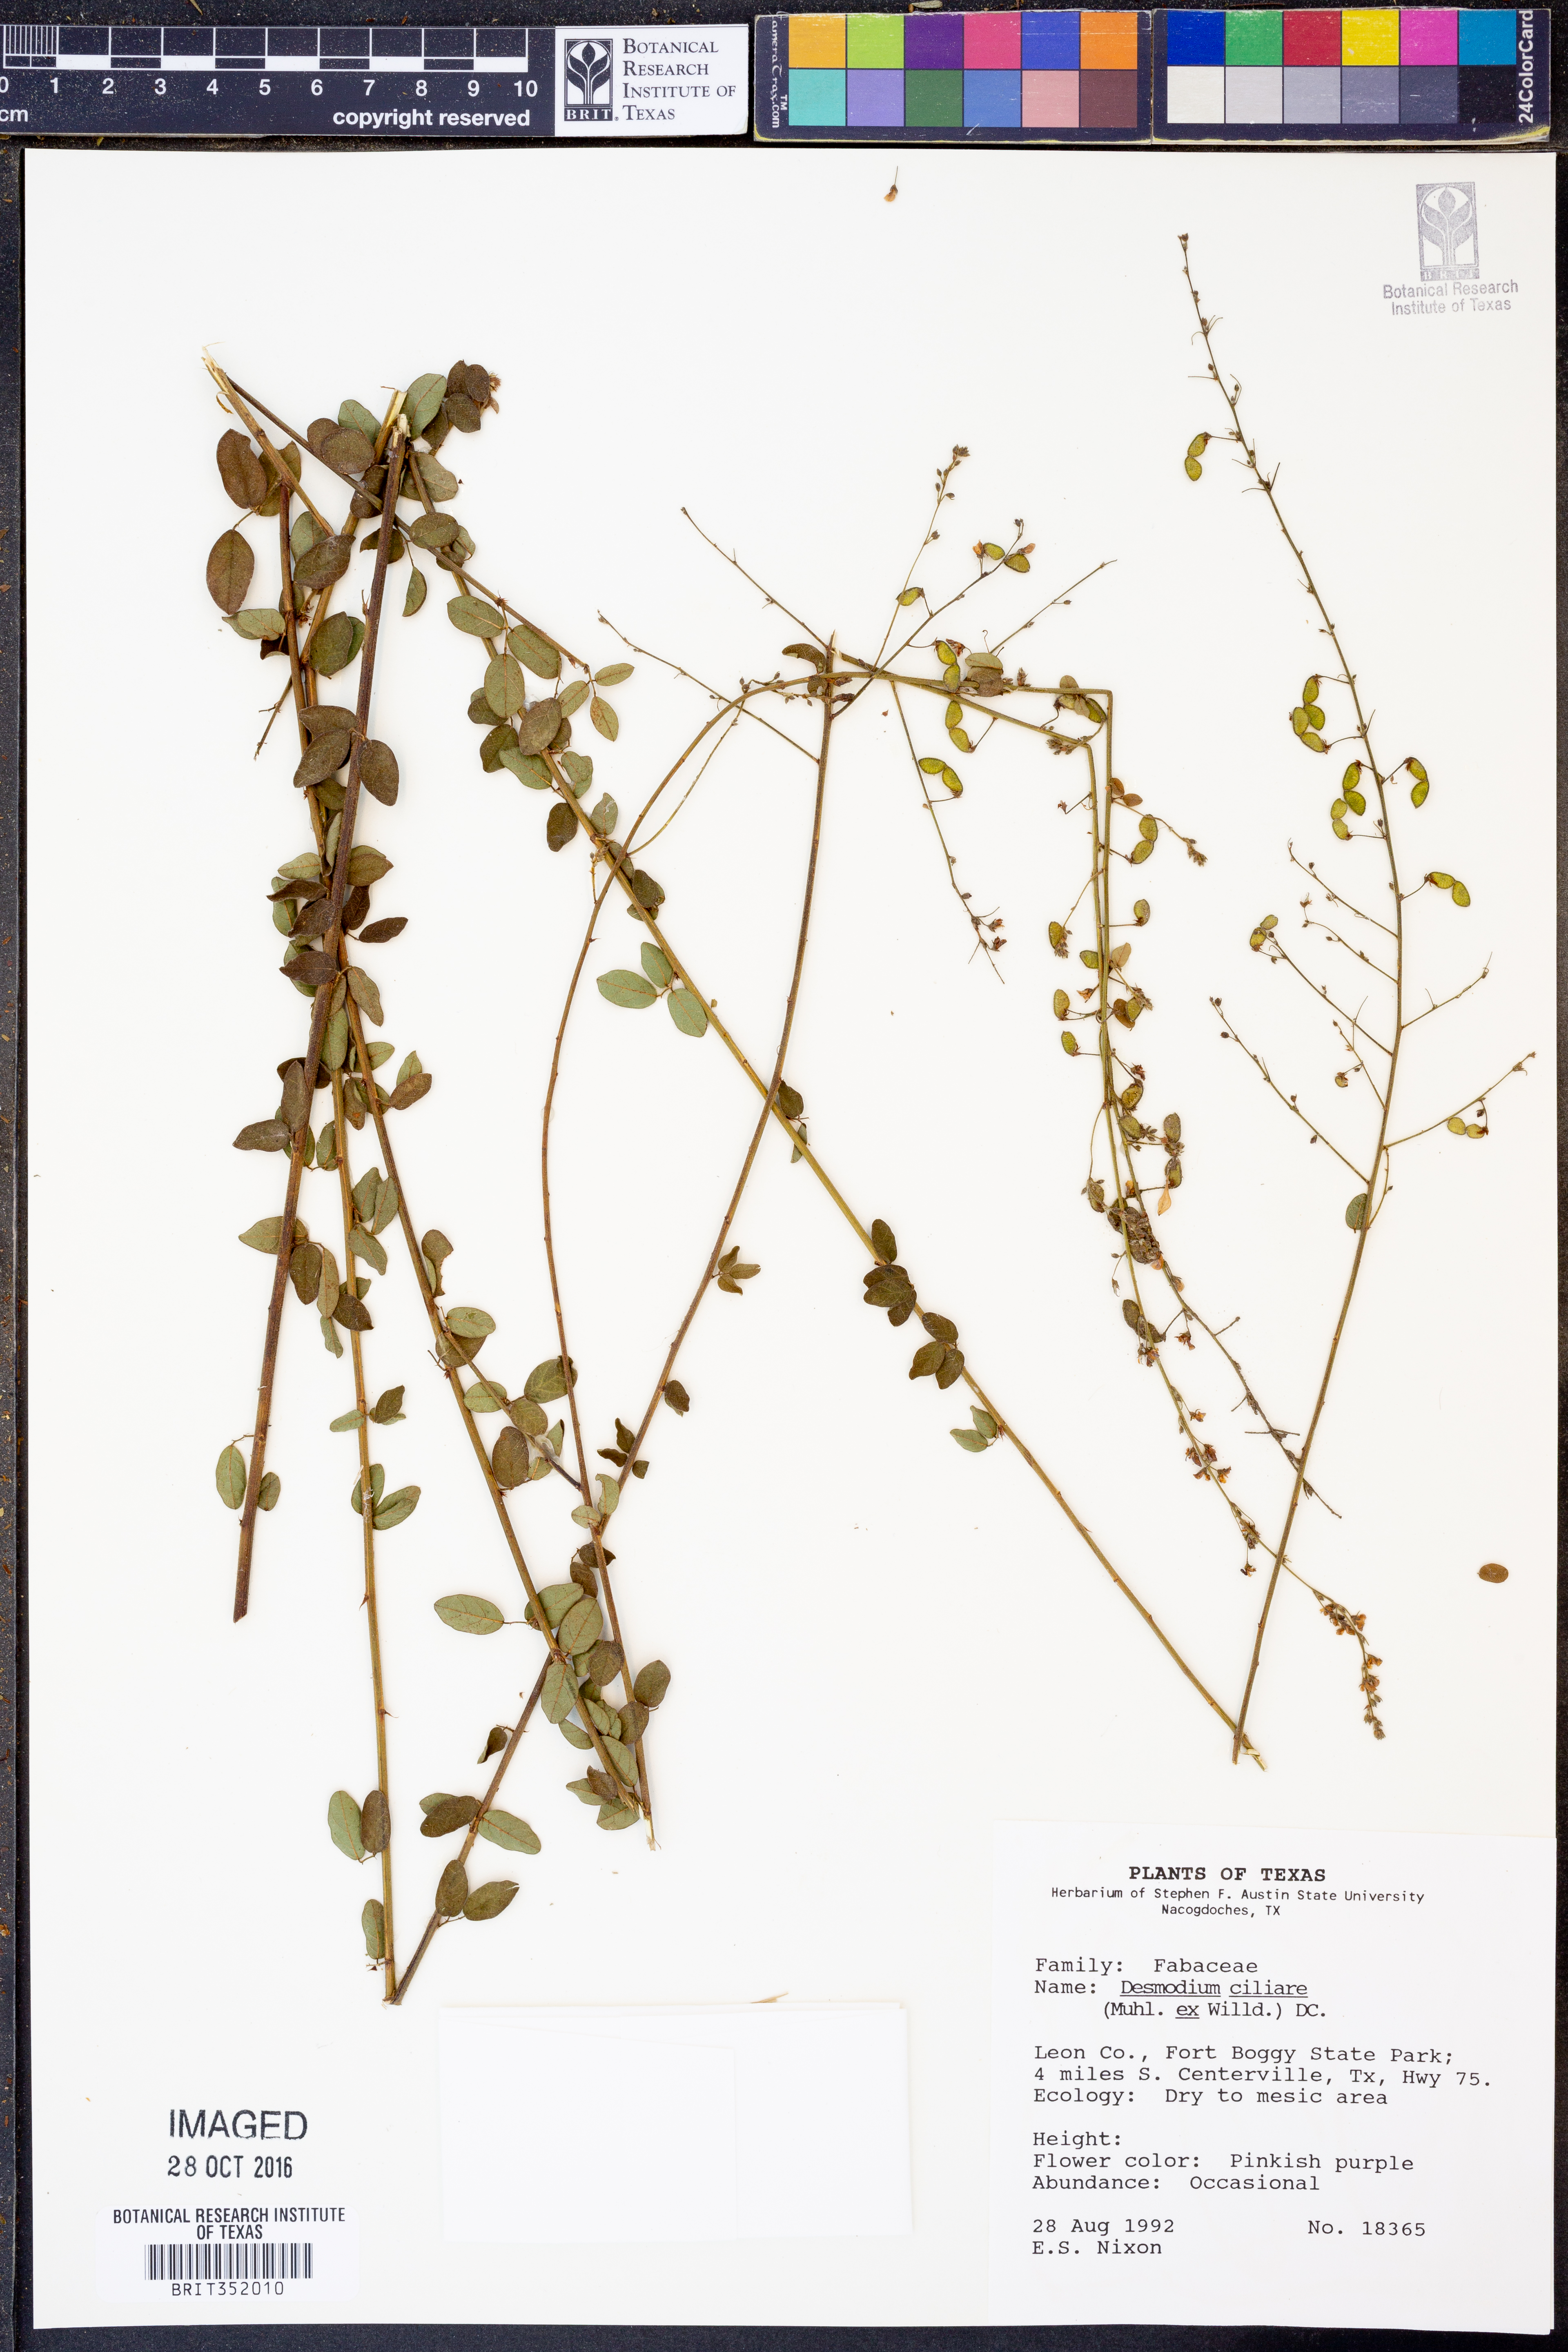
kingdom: Plantae
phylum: Tracheophyta
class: Magnoliopsida
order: Fabales
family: Fabaceae
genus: Desmodium
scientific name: Desmodium ciliare
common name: Hairy small-leaf ticktrefoil
